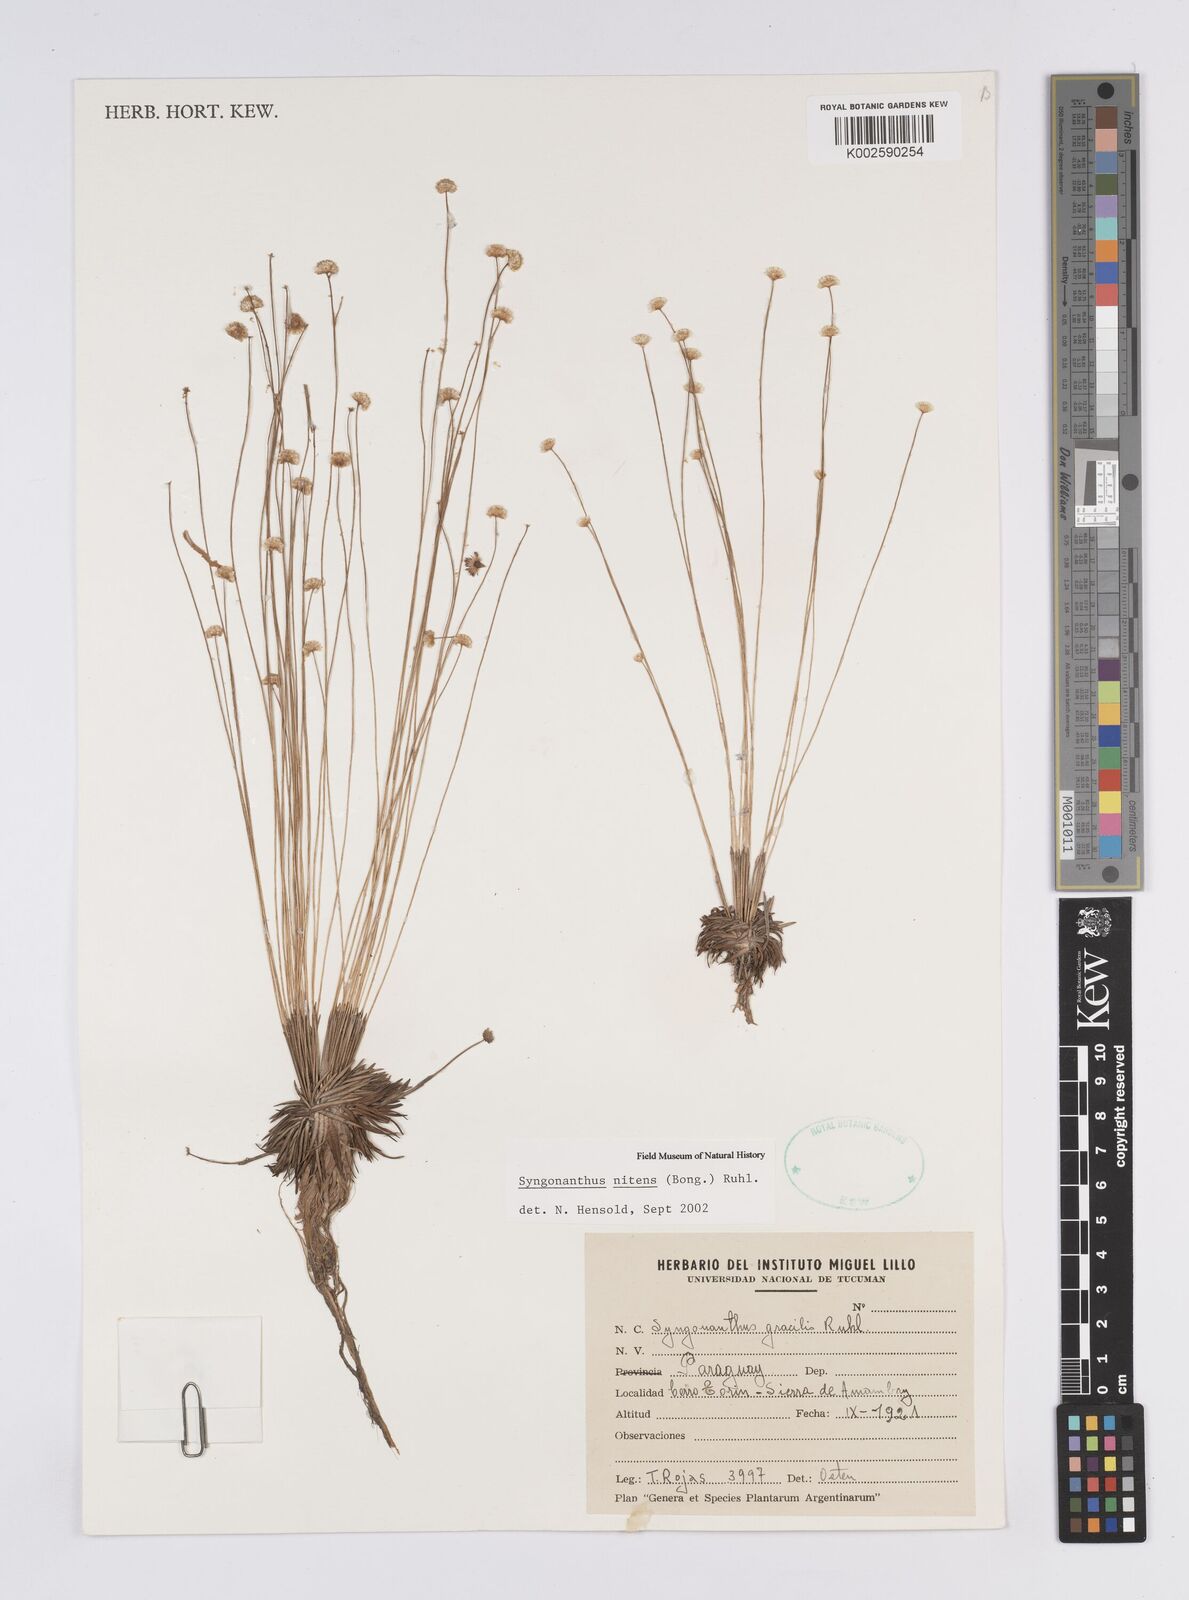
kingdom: Plantae
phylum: Tracheophyta
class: Liliopsida
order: Poales
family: Eriocaulaceae
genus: Syngonanthus
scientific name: Syngonanthus nitens
